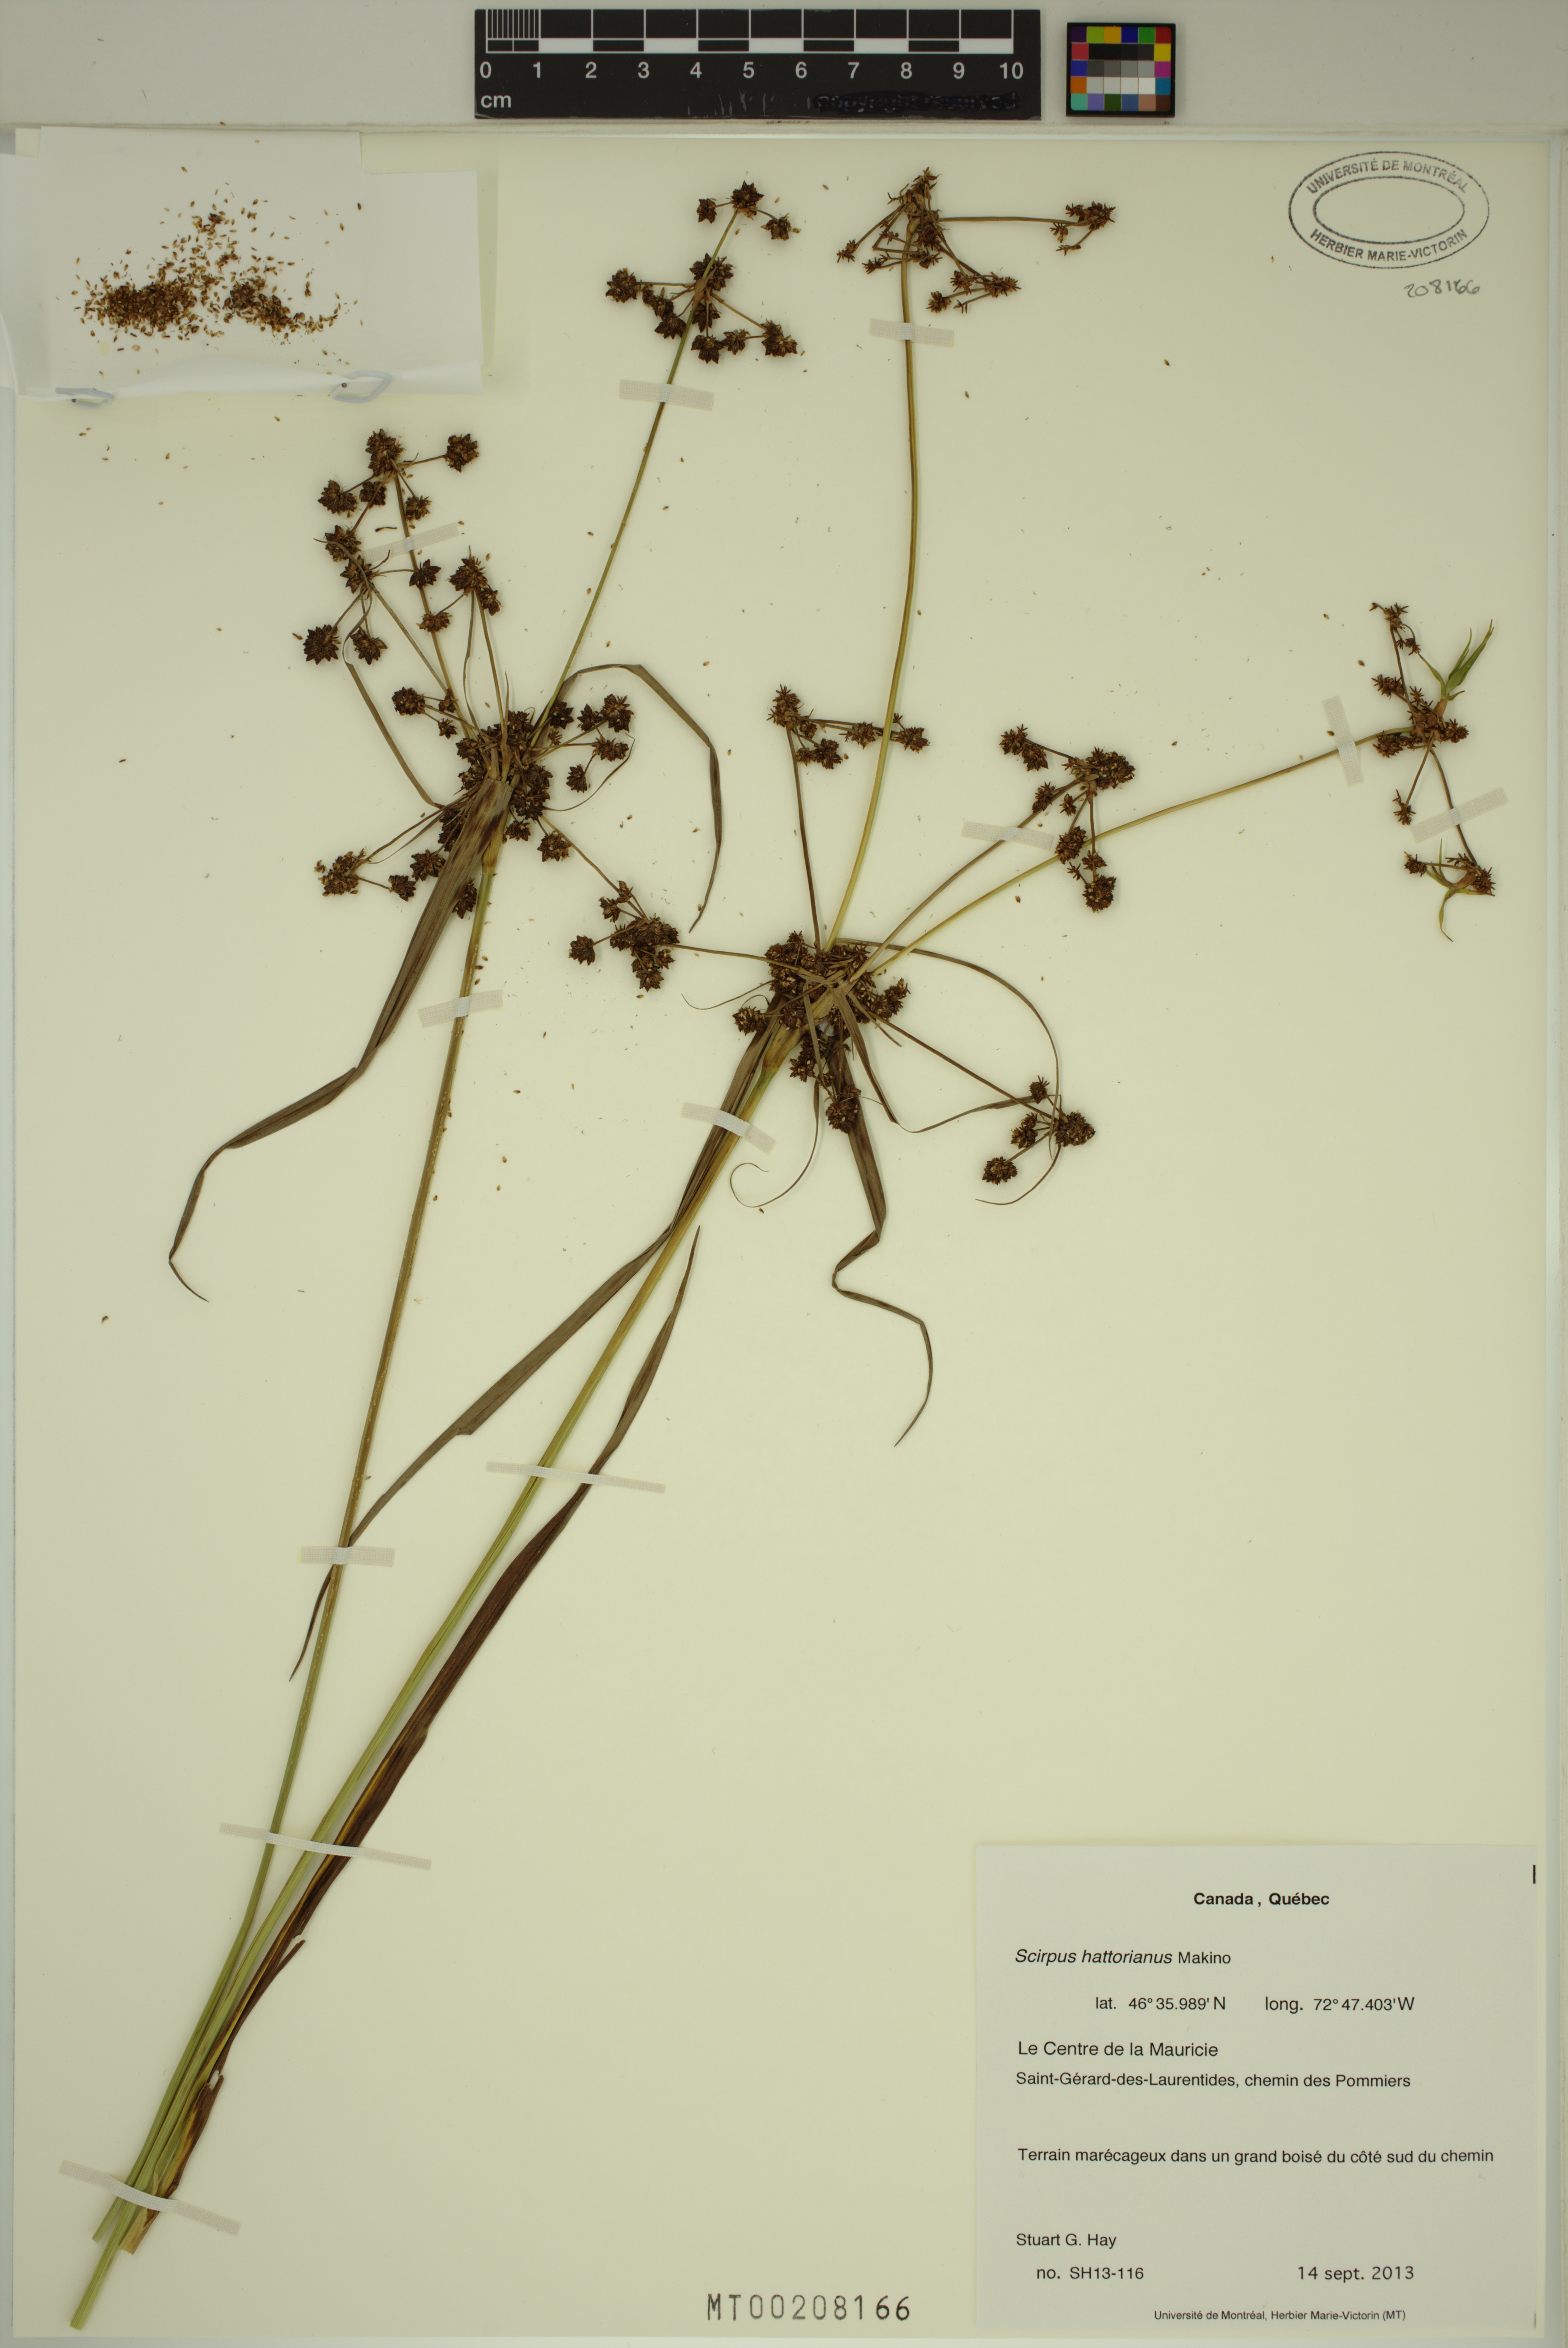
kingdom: Plantae
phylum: Tracheophyta
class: Liliopsida
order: Poales
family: Cyperaceae
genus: Scirpus
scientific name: Scirpus hattorianus
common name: Early dark-green bulrush
